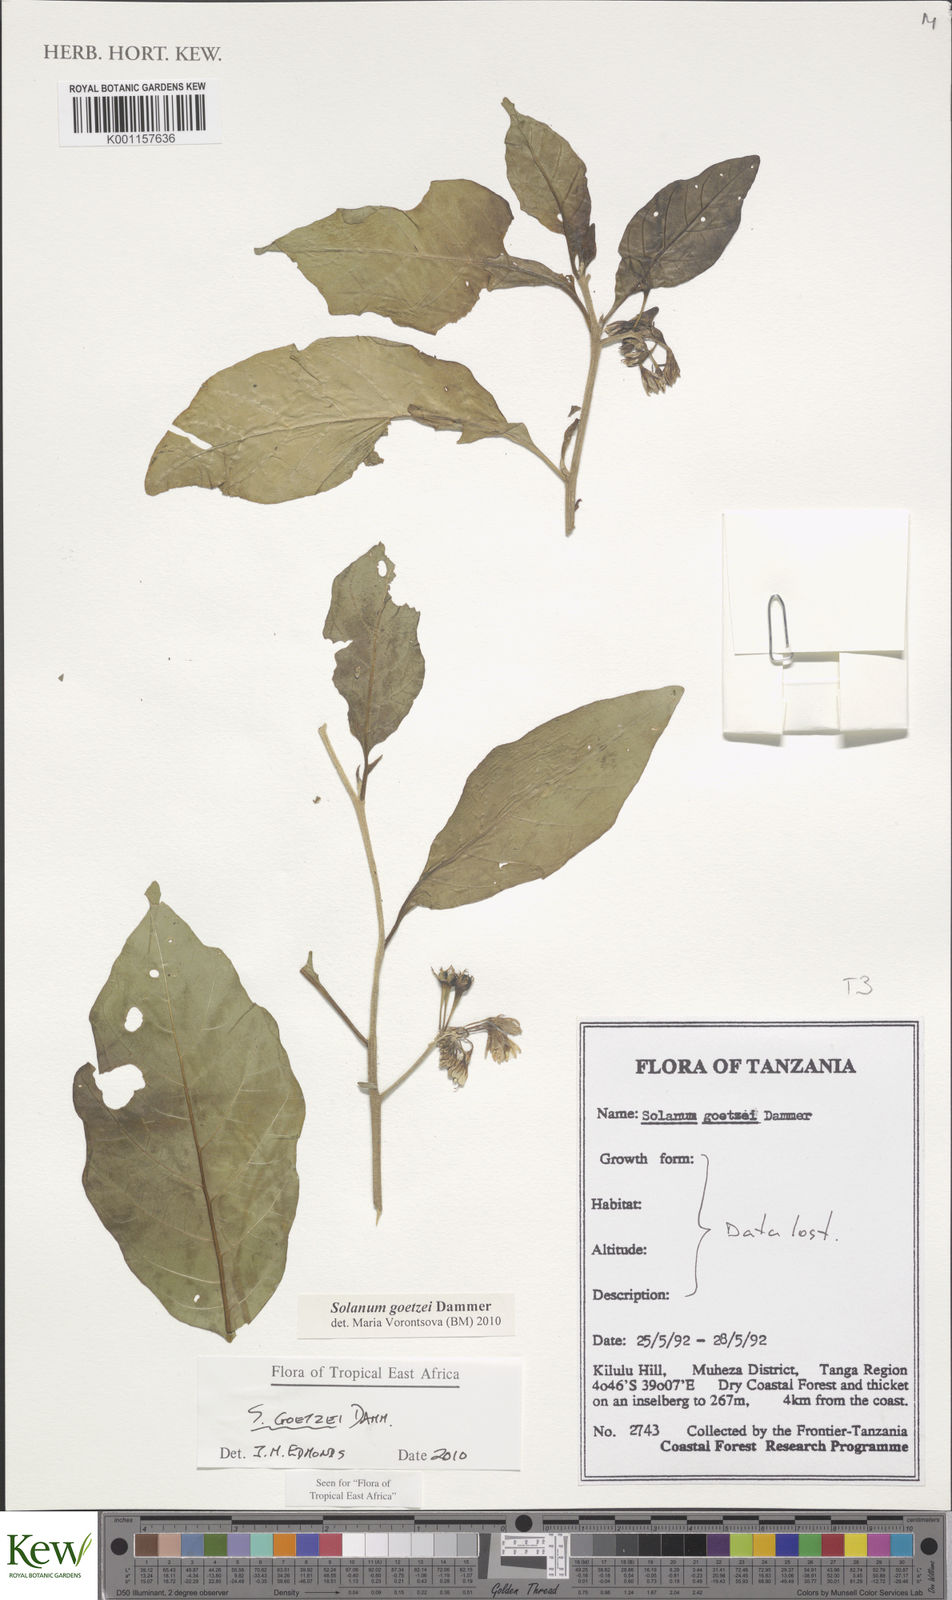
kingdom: Plantae
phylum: Tracheophyta
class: Magnoliopsida
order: Solanales
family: Solanaceae
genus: Solanum
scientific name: Solanum goetzei
